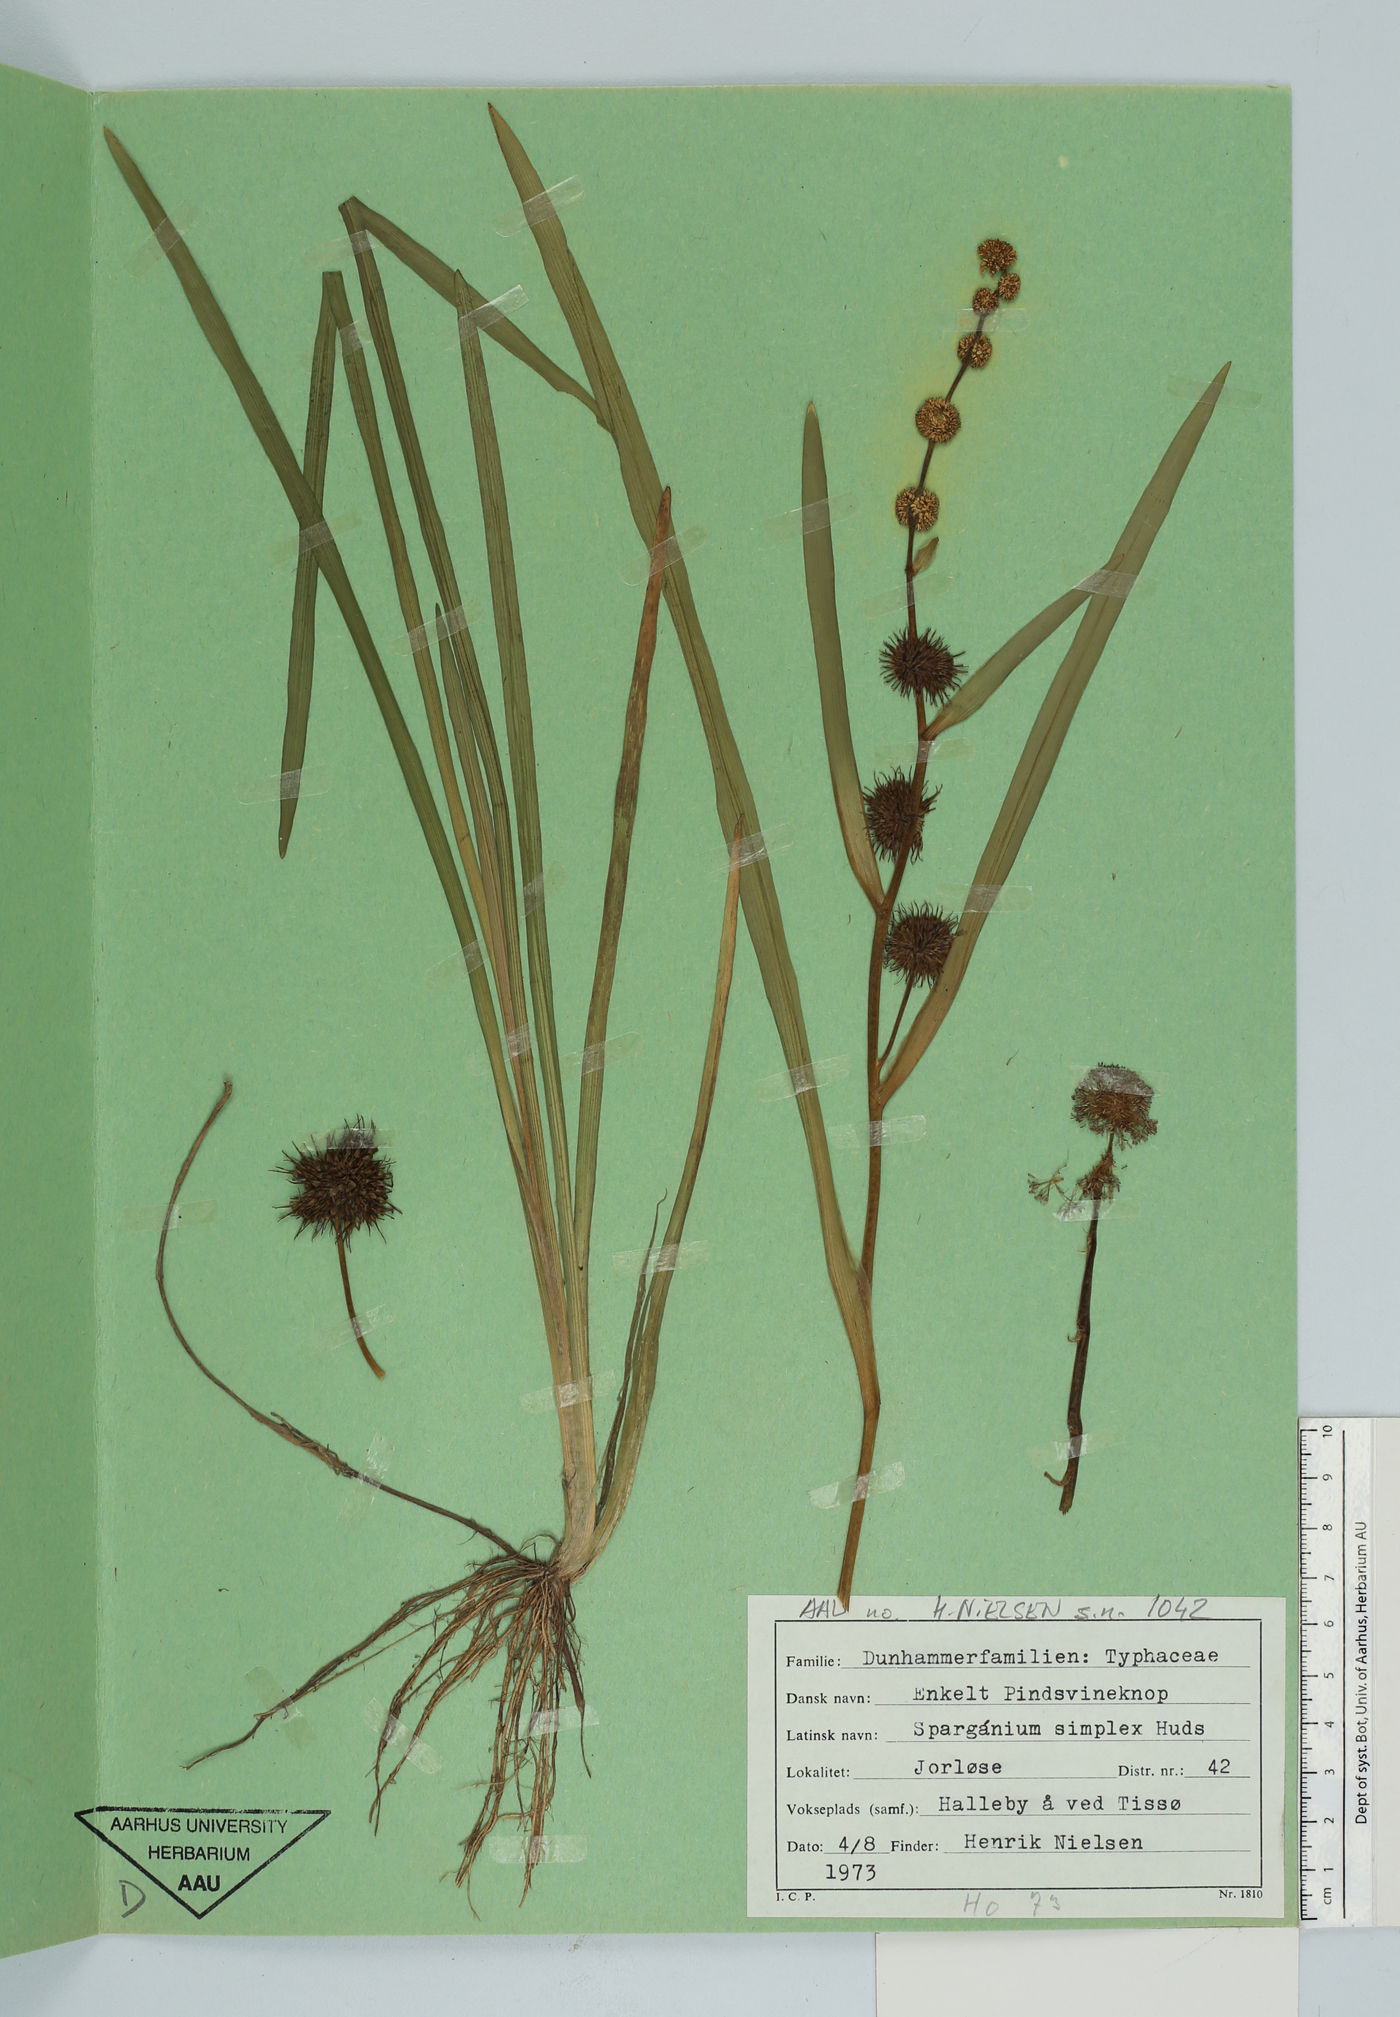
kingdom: Plantae
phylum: Tracheophyta
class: Liliopsida
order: Poales
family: Typhaceae
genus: Sparganium
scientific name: Sparganium emersum
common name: Unbranched bur-reed
